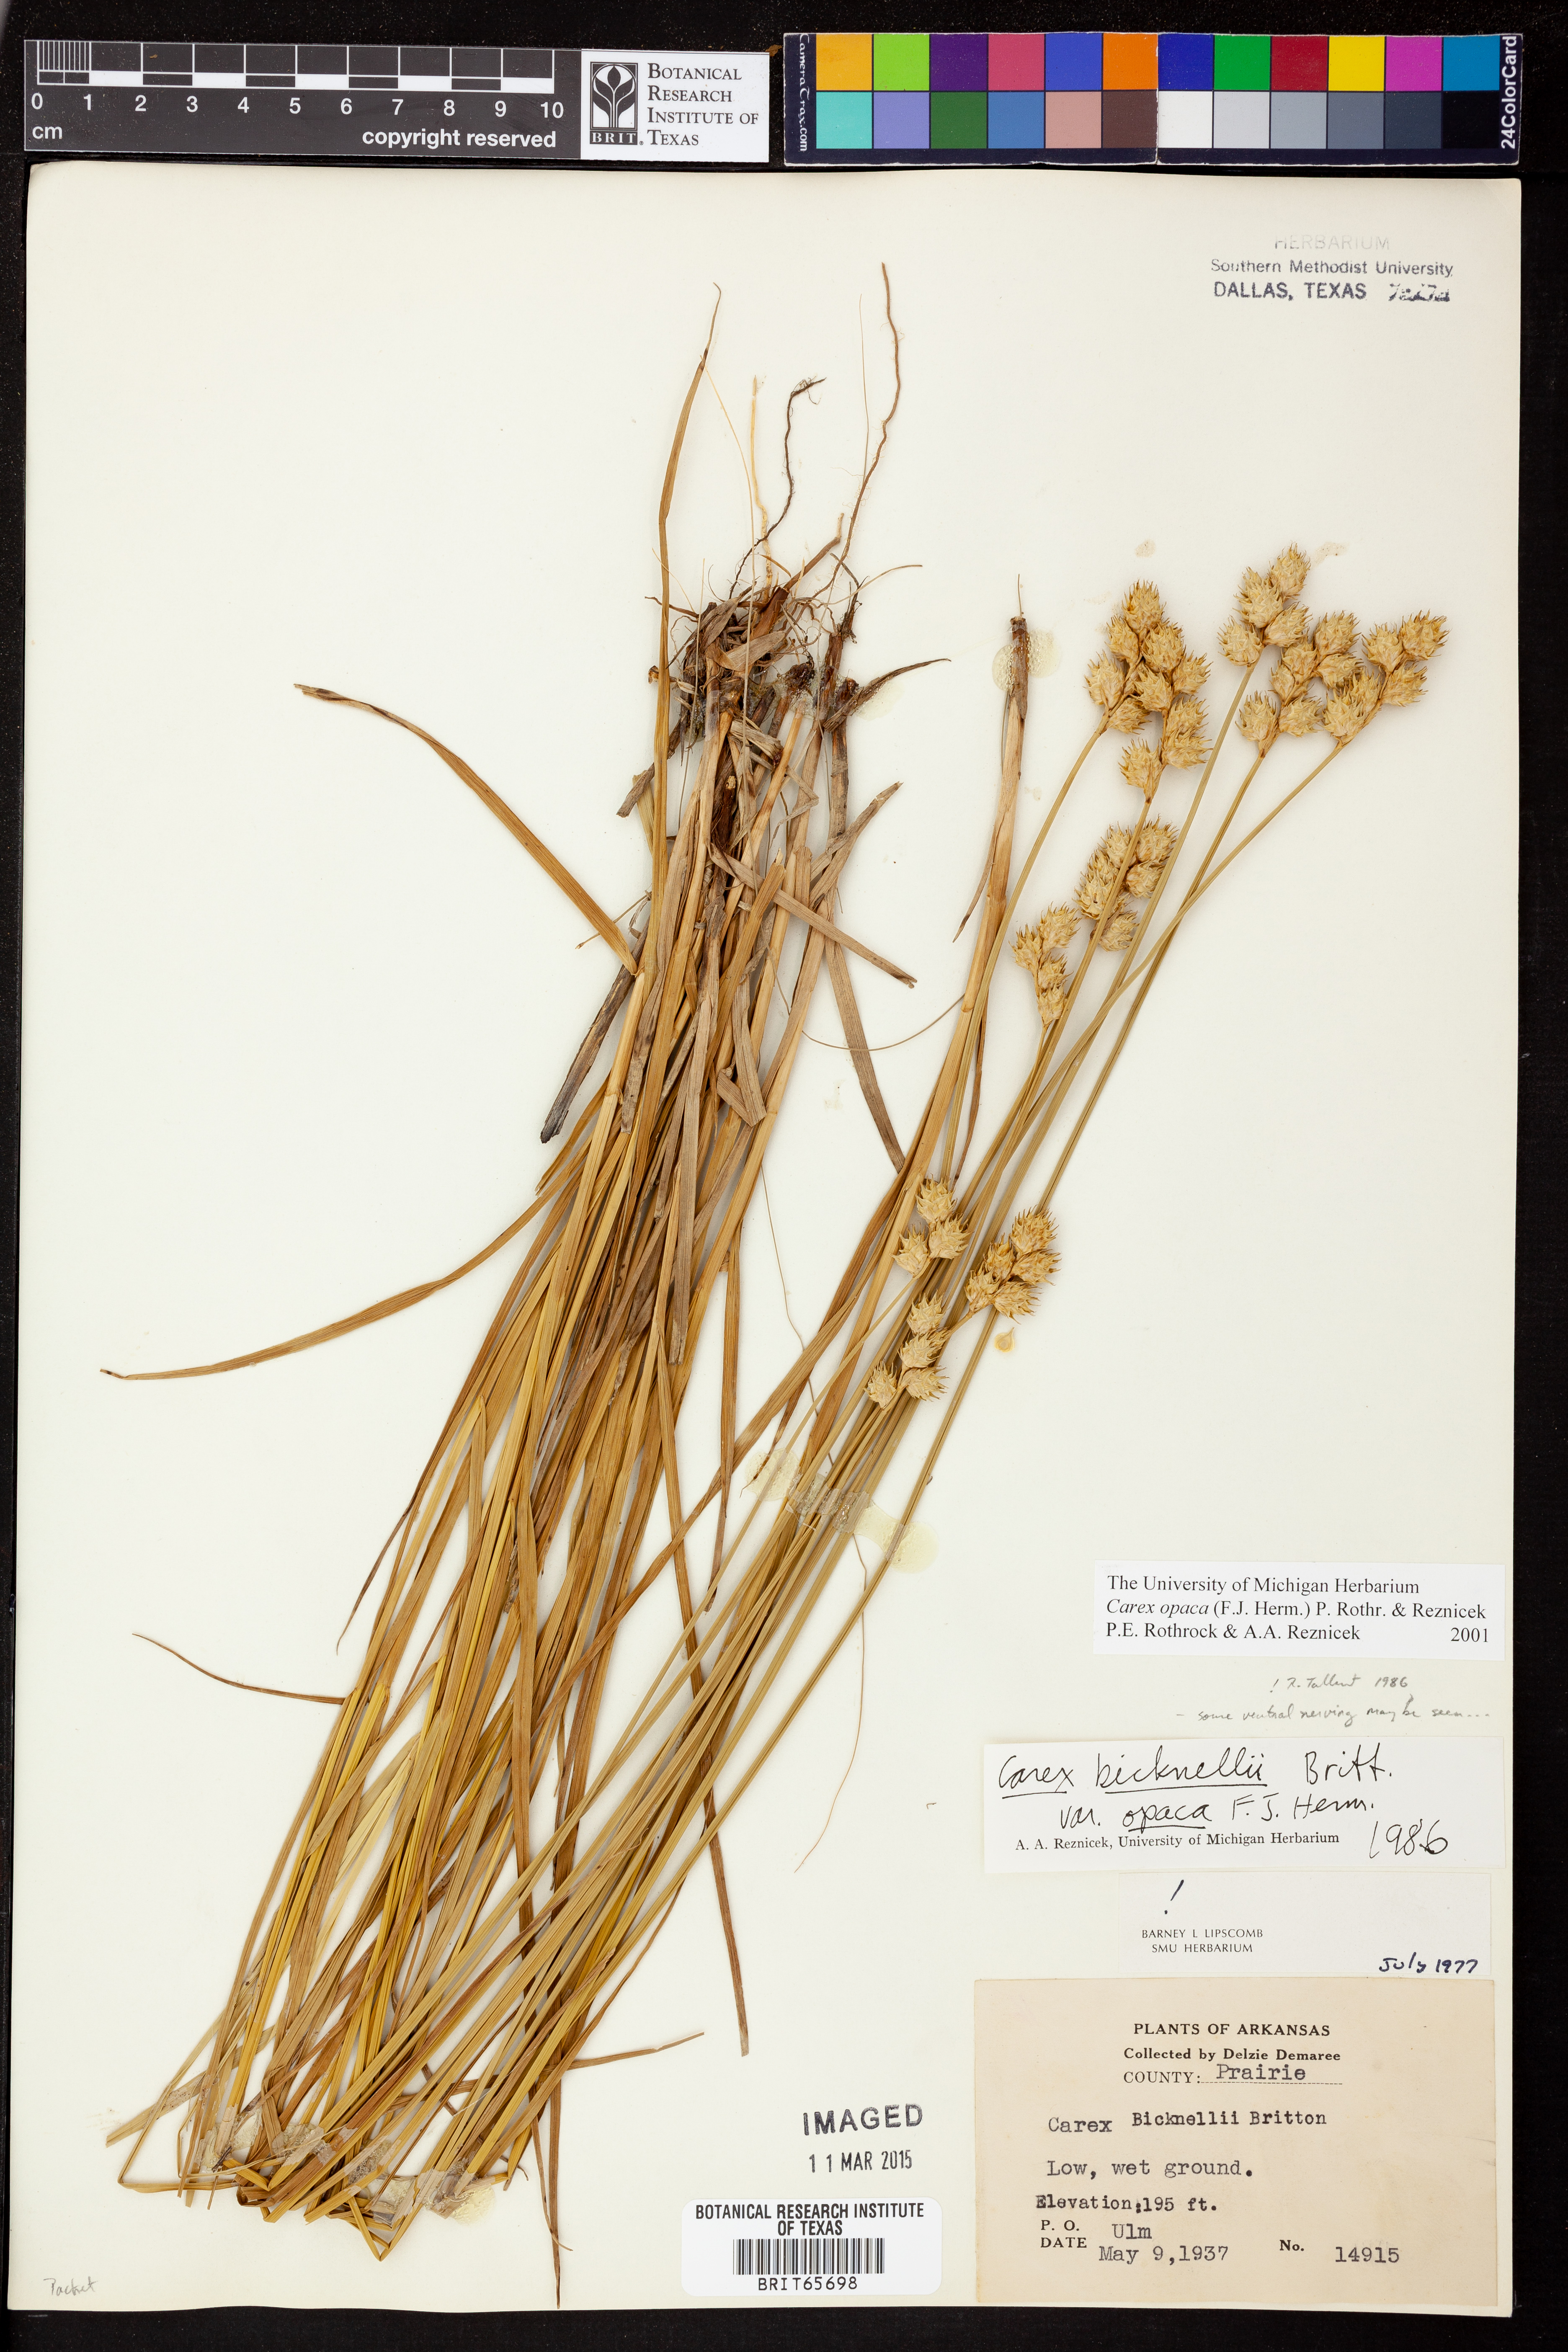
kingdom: Plantae
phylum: Tracheophyta
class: Liliopsida
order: Poales
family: Cyperaceae
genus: Carex
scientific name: Carex opaca
